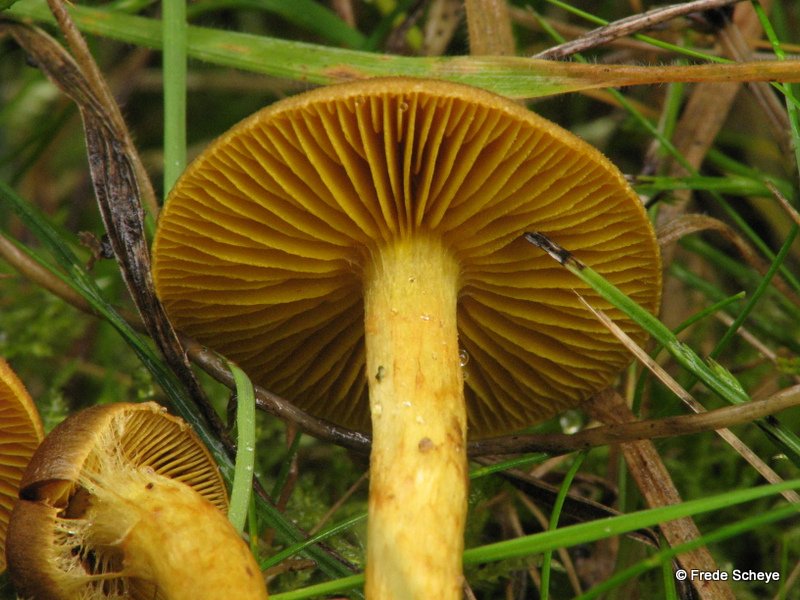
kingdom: Fungi
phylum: Basidiomycota
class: Agaricomycetes
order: Agaricales
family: Cortinariaceae
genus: Cortinarius
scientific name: Cortinarius
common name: gulbladet slørhat
